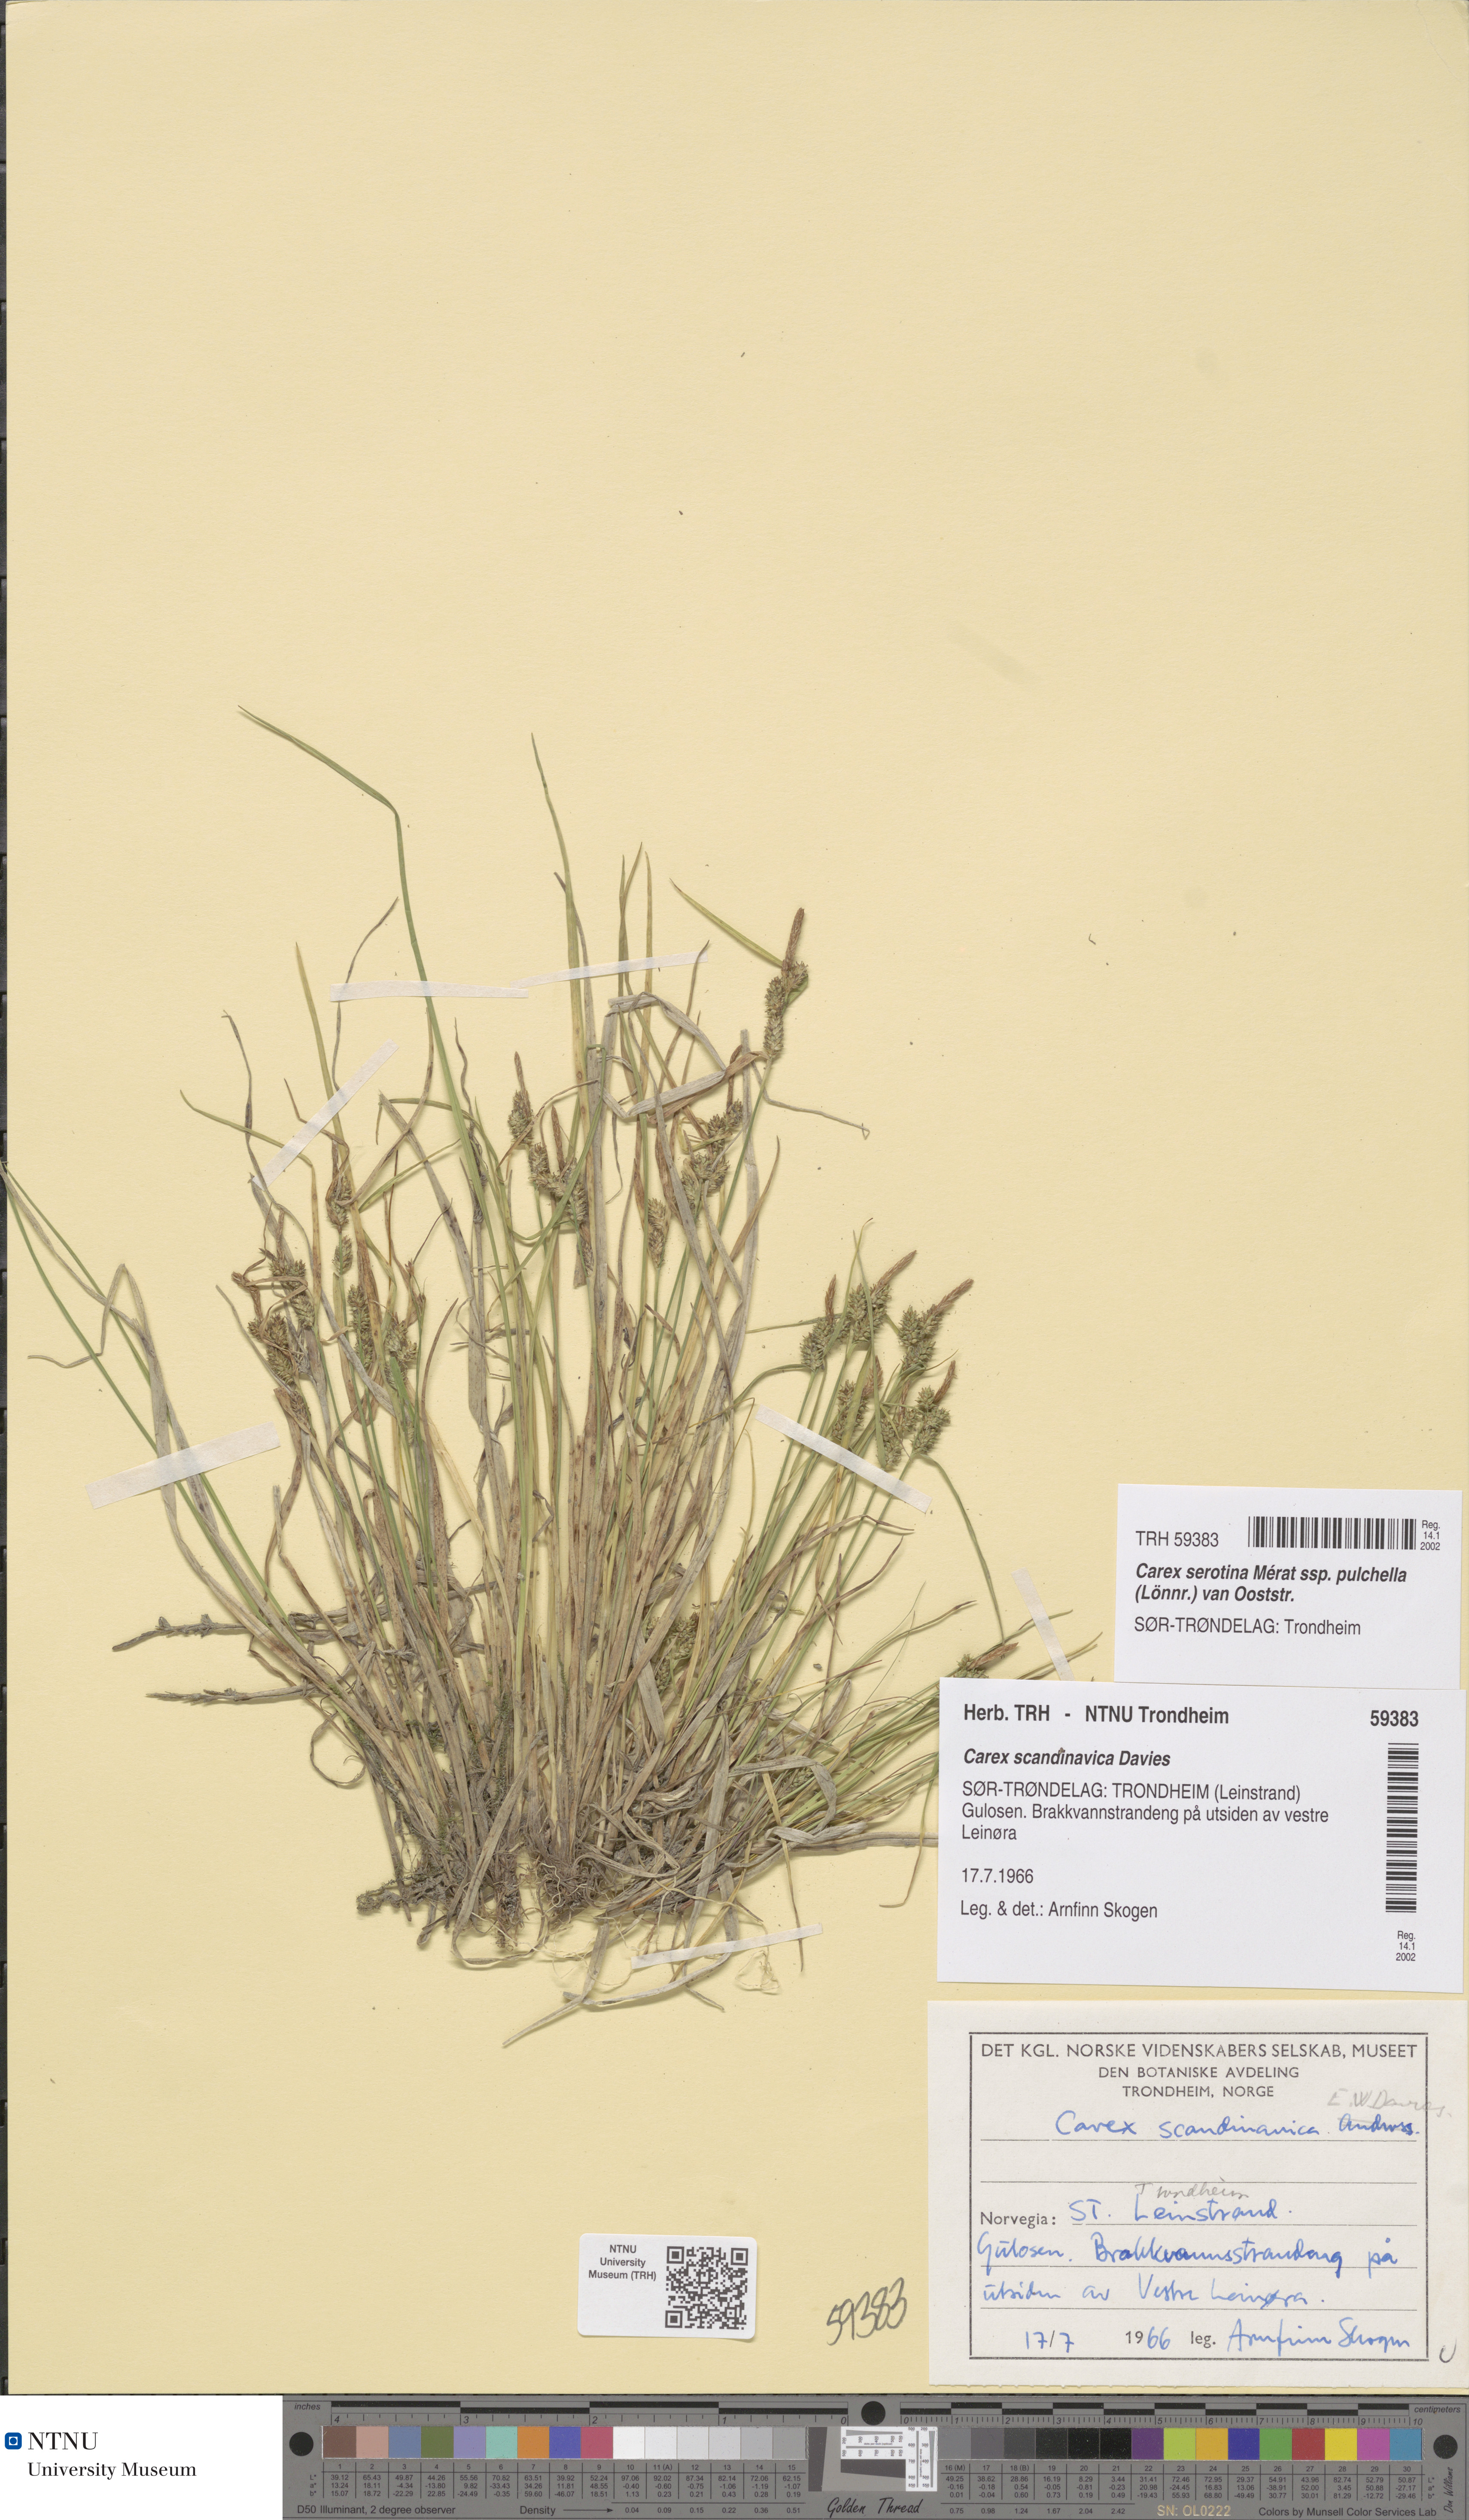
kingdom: Plantae
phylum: Tracheophyta
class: Liliopsida
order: Poales
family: Cyperaceae
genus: Carex
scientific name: Carex oederi
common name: Common & small-fruited yellow-sedge
